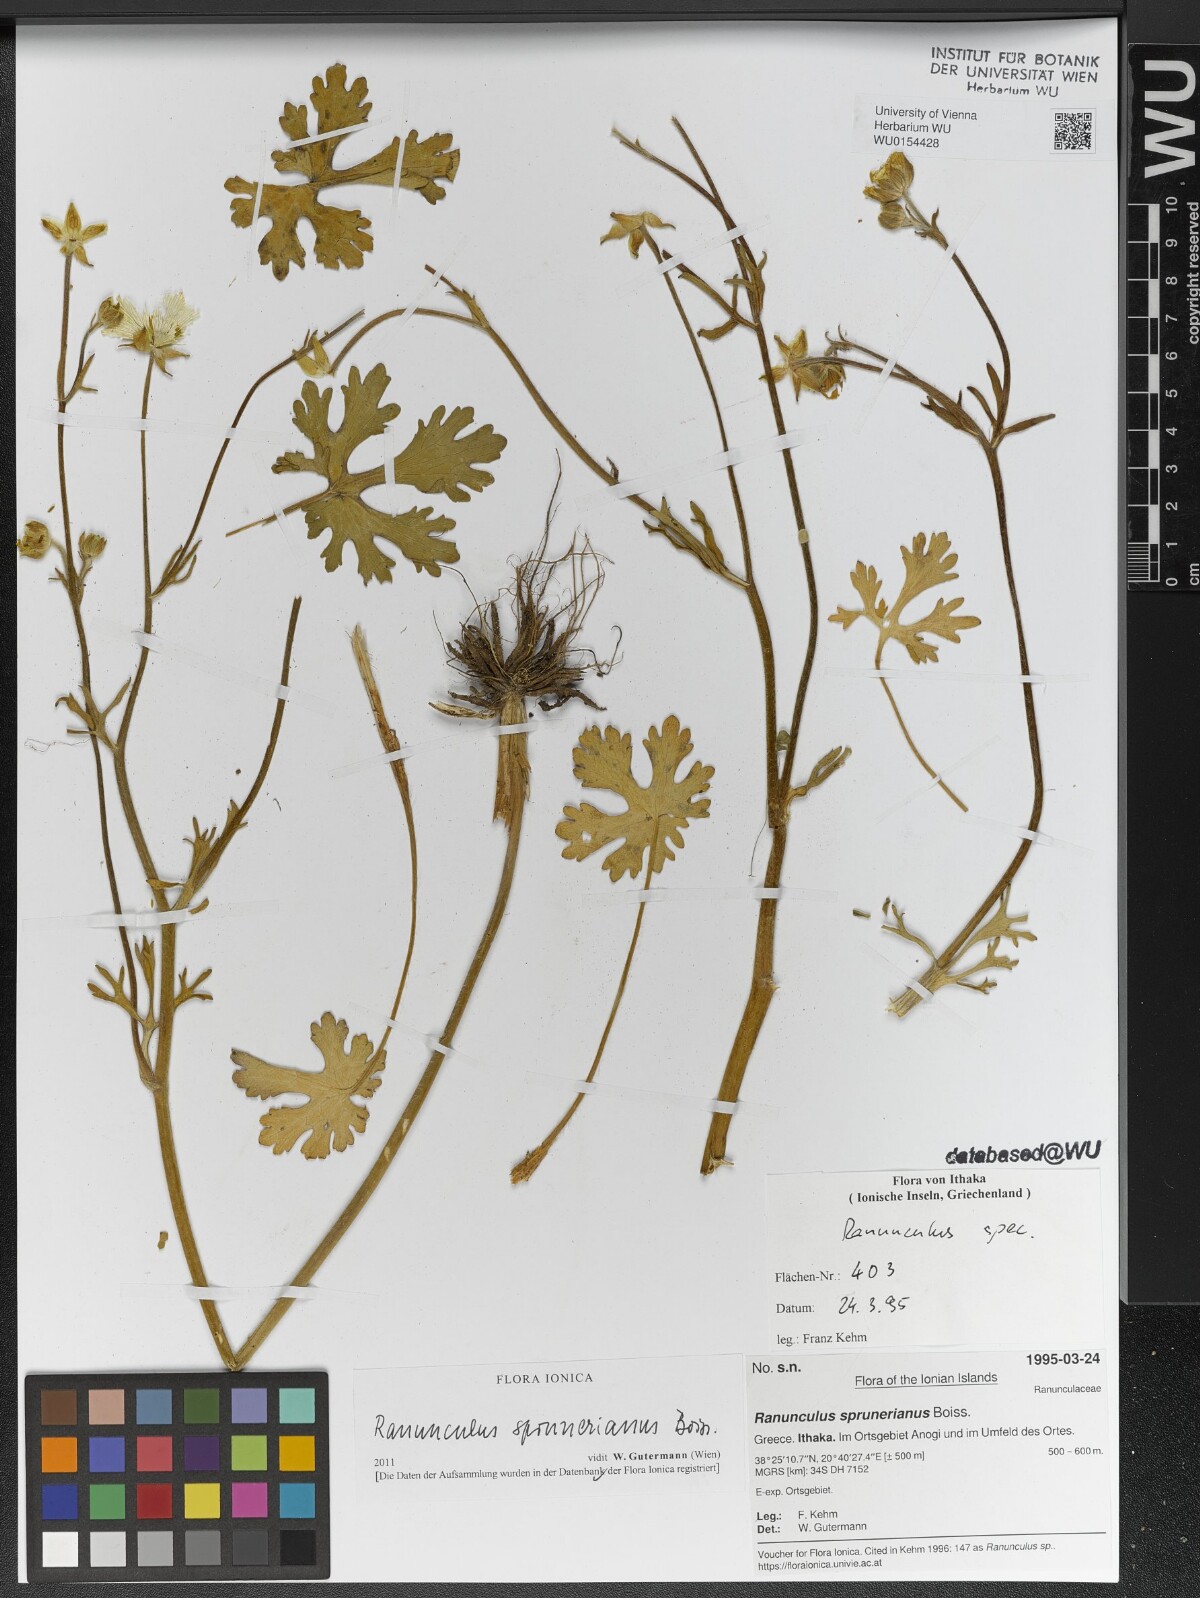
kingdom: Plantae
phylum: Tracheophyta
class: Magnoliopsida
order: Ranunculales
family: Ranunculaceae
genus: Ranunculus
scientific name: Ranunculus sprunerianus
